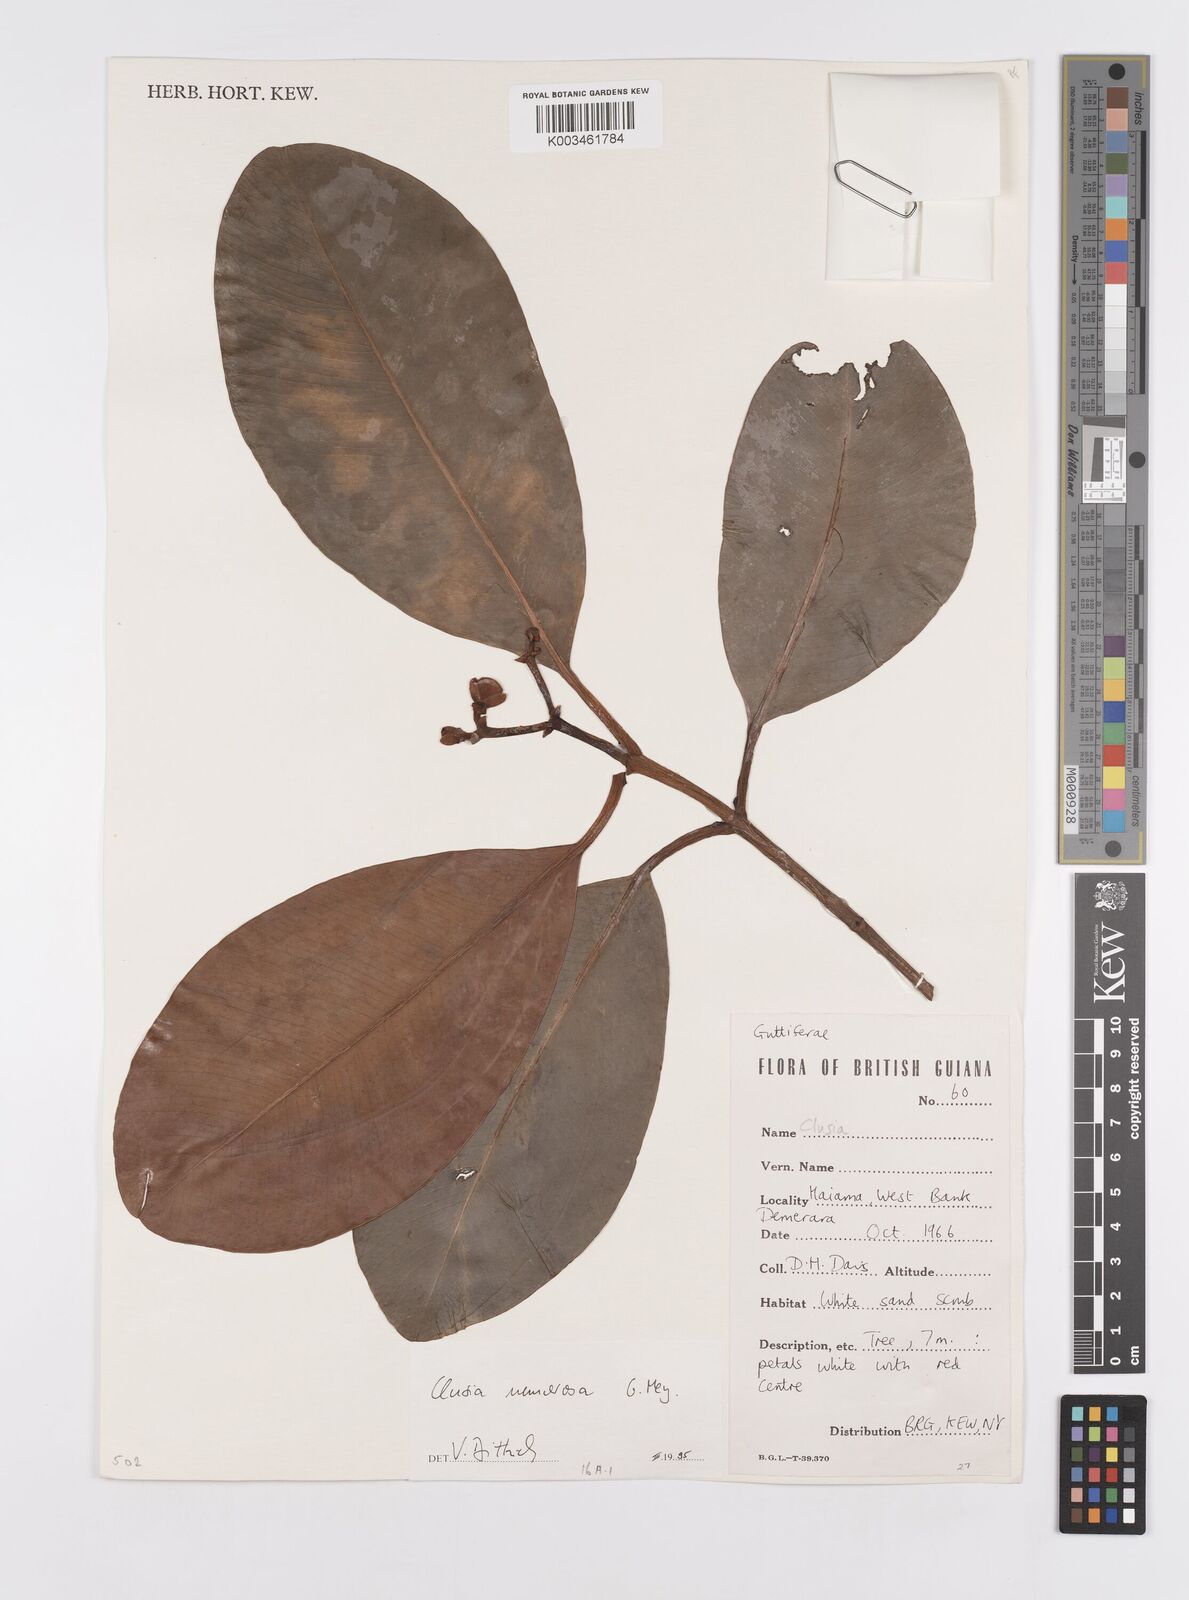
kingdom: Plantae
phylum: Tracheophyta
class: Magnoliopsida
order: Malpighiales
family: Clusiaceae
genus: Clusia
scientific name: Clusia nemorosa
